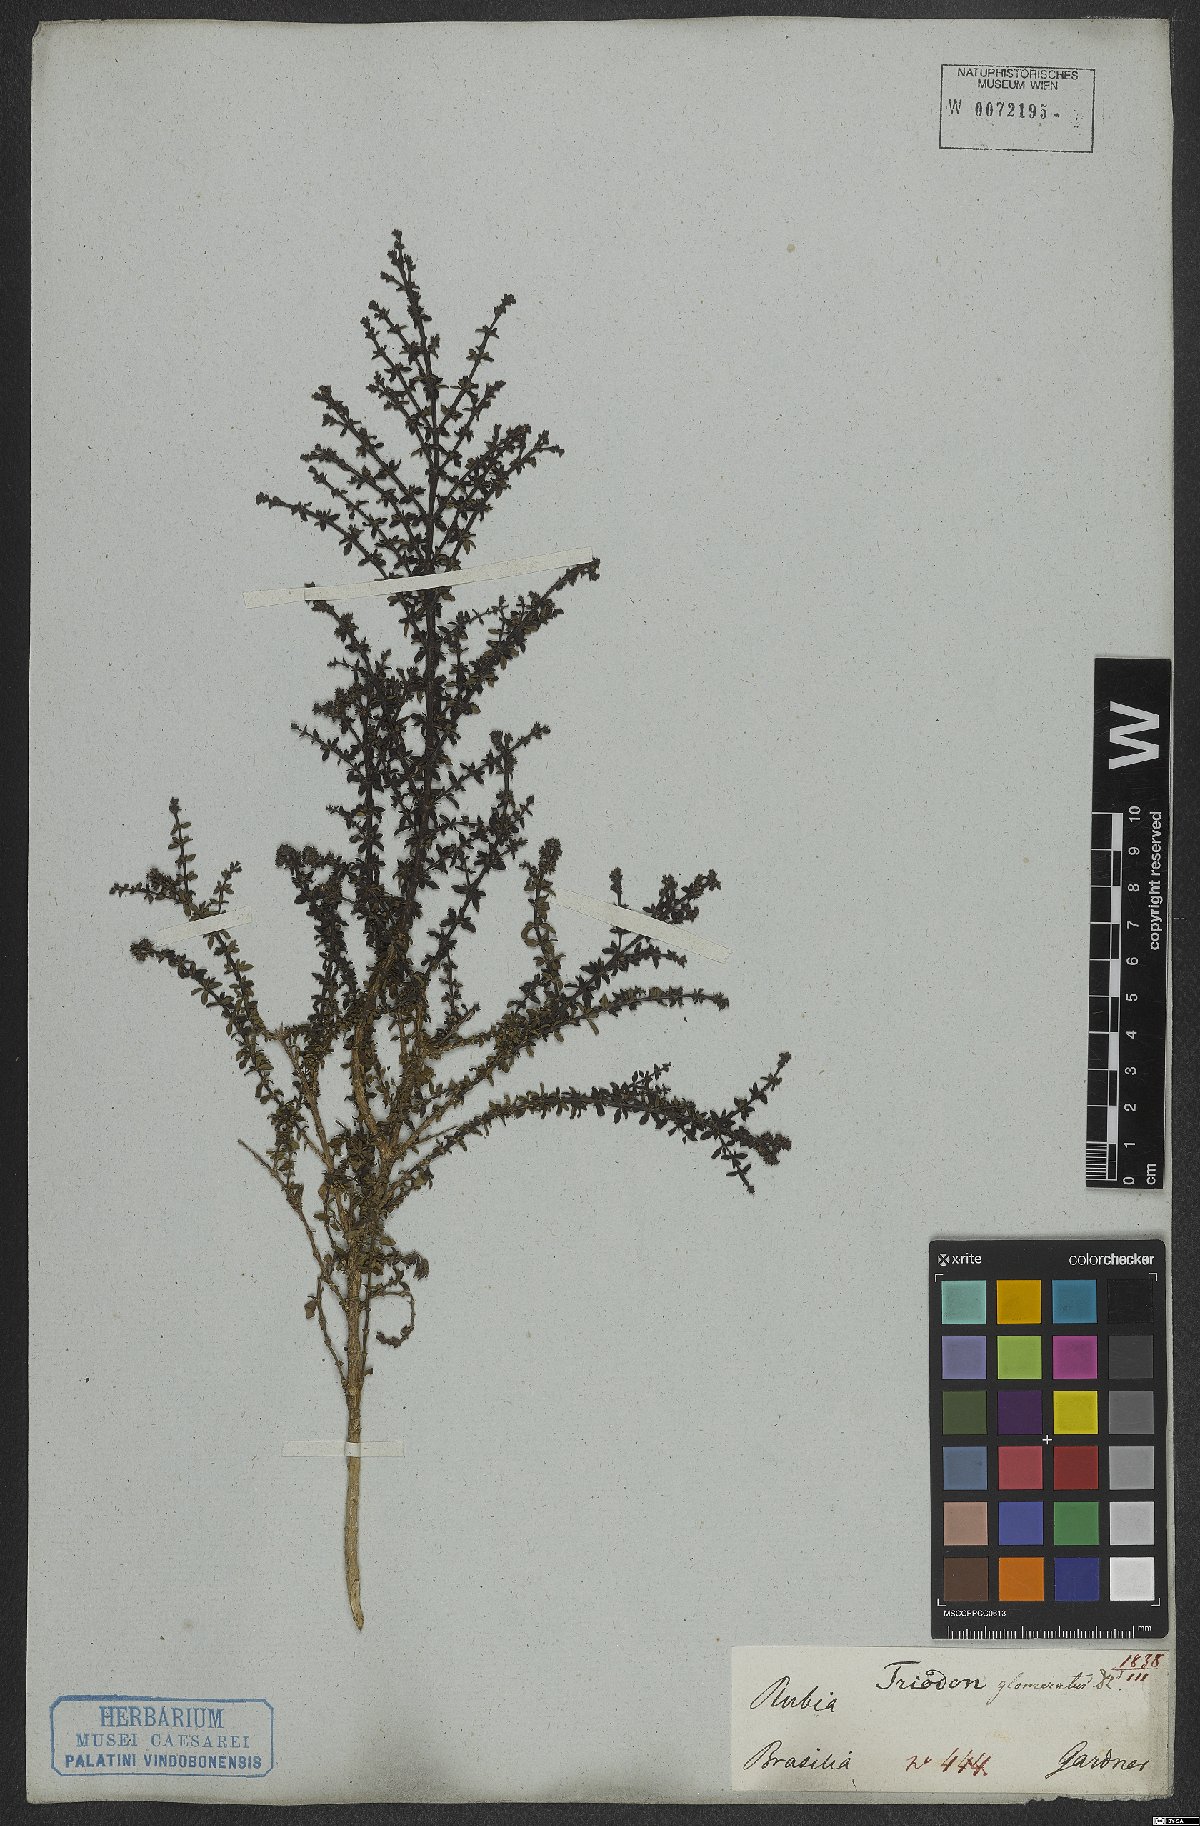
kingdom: Plantae
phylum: Tracheophyta
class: Magnoliopsida
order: Gentianales
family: Rubiaceae
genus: Galianthe
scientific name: Galianthe brasiliensis
